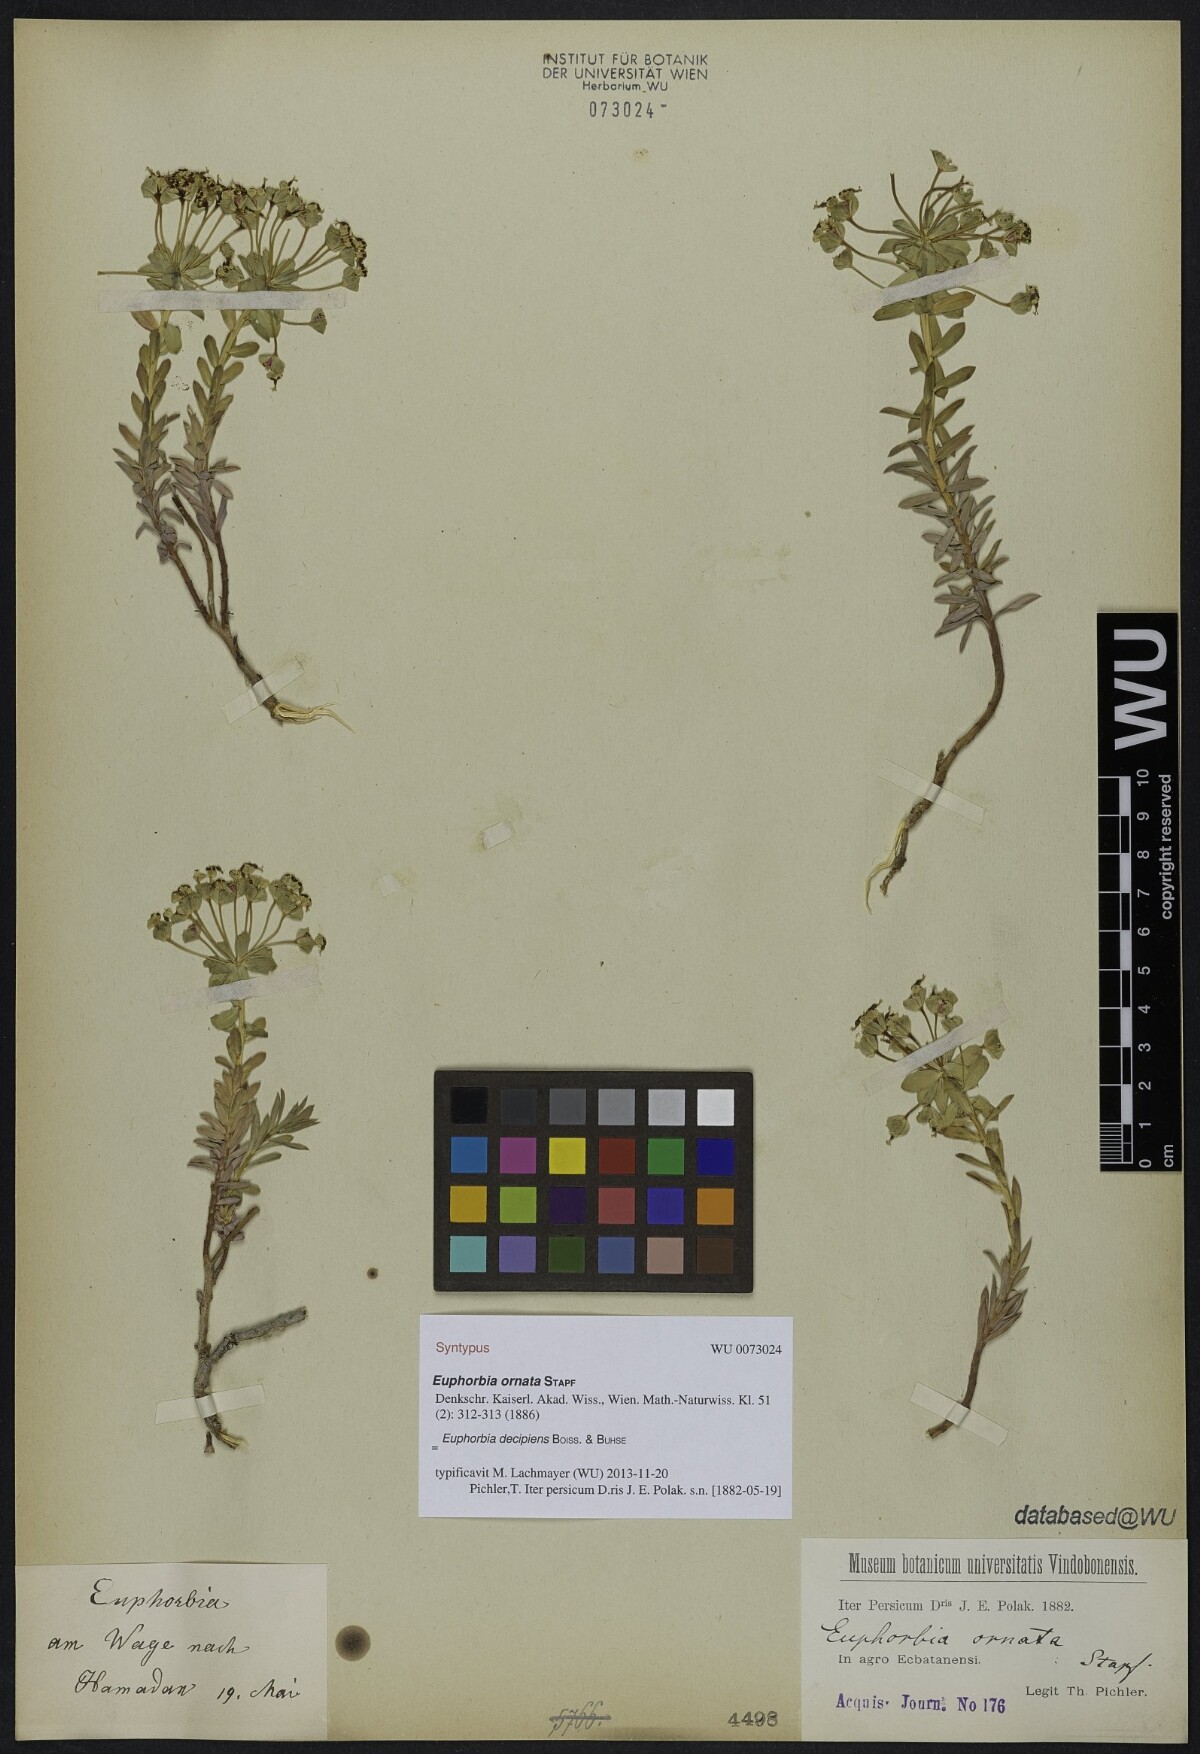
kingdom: Plantae
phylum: Tracheophyta
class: Magnoliopsida
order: Malpighiales
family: Euphorbiaceae
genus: Euphorbia
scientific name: Euphorbia polycaulis
